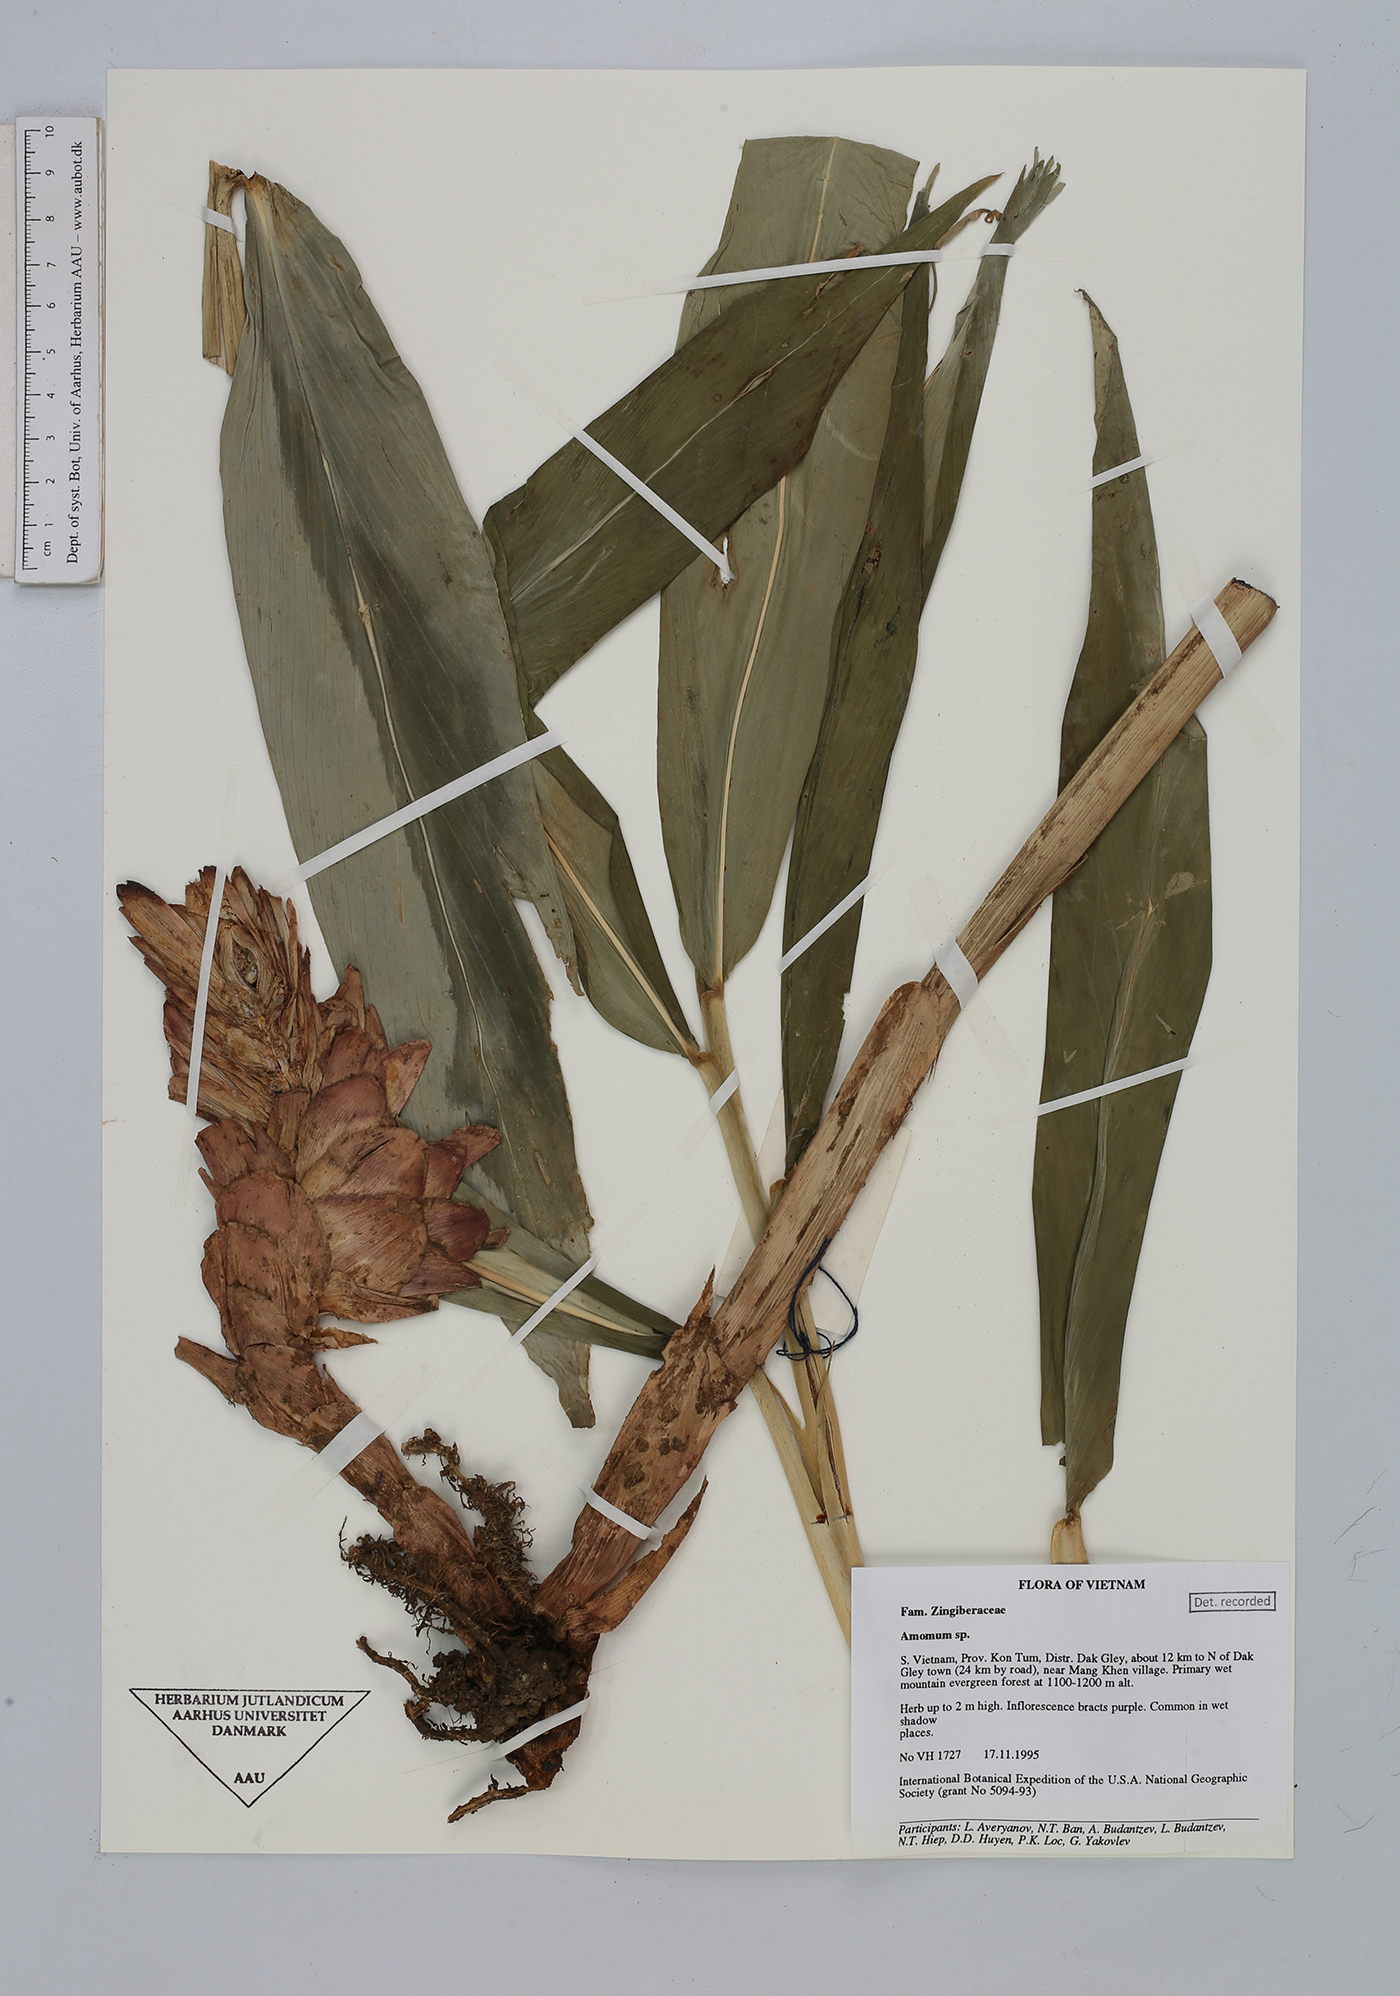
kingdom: Plantae
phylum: Tracheophyta
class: Liliopsida
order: Zingiberales
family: Zingiberaceae
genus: Amomum
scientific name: Amomum
